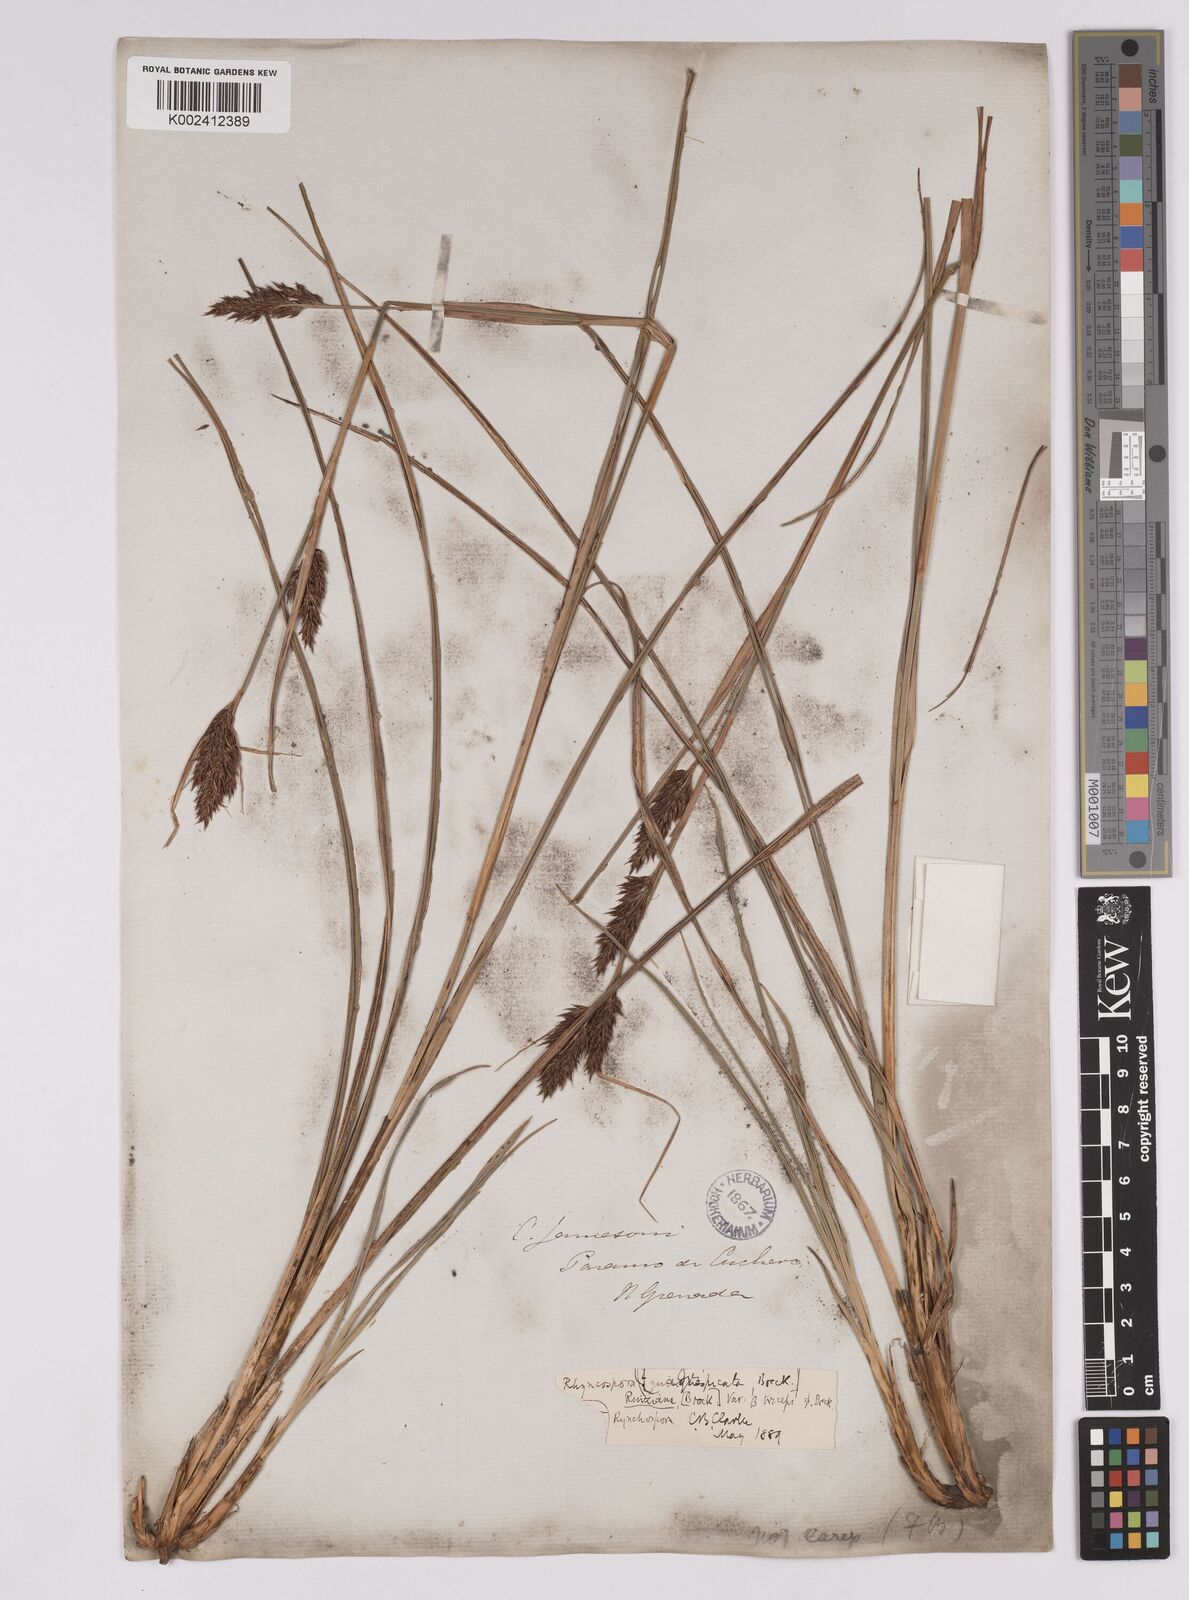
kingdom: Plantae
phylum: Tracheophyta
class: Liliopsida
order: Poales
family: Cyperaceae
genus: Rhynchospora
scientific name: Rhynchospora ruiziana
